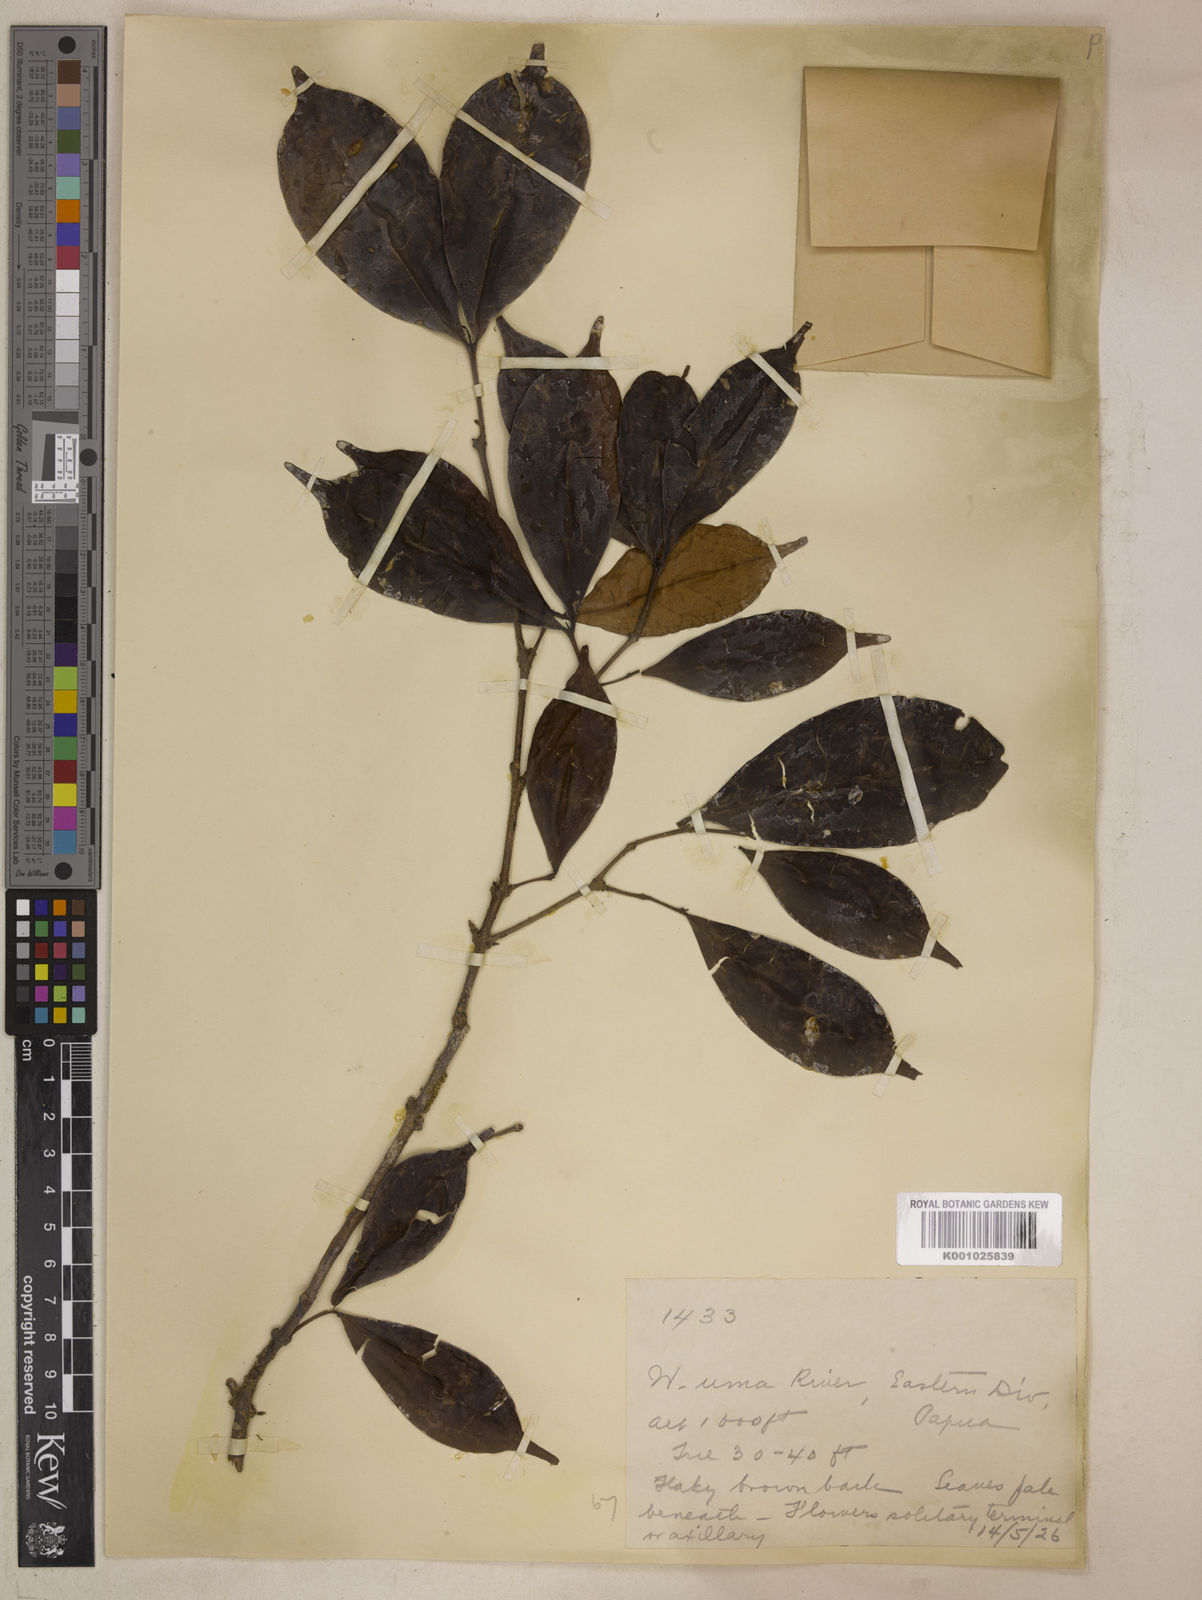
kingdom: Plantae
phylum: Tracheophyta
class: Magnoliopsida
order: Myrtales
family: Myrtaceae
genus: Syzygium
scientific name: Syzygium trachyanthum
